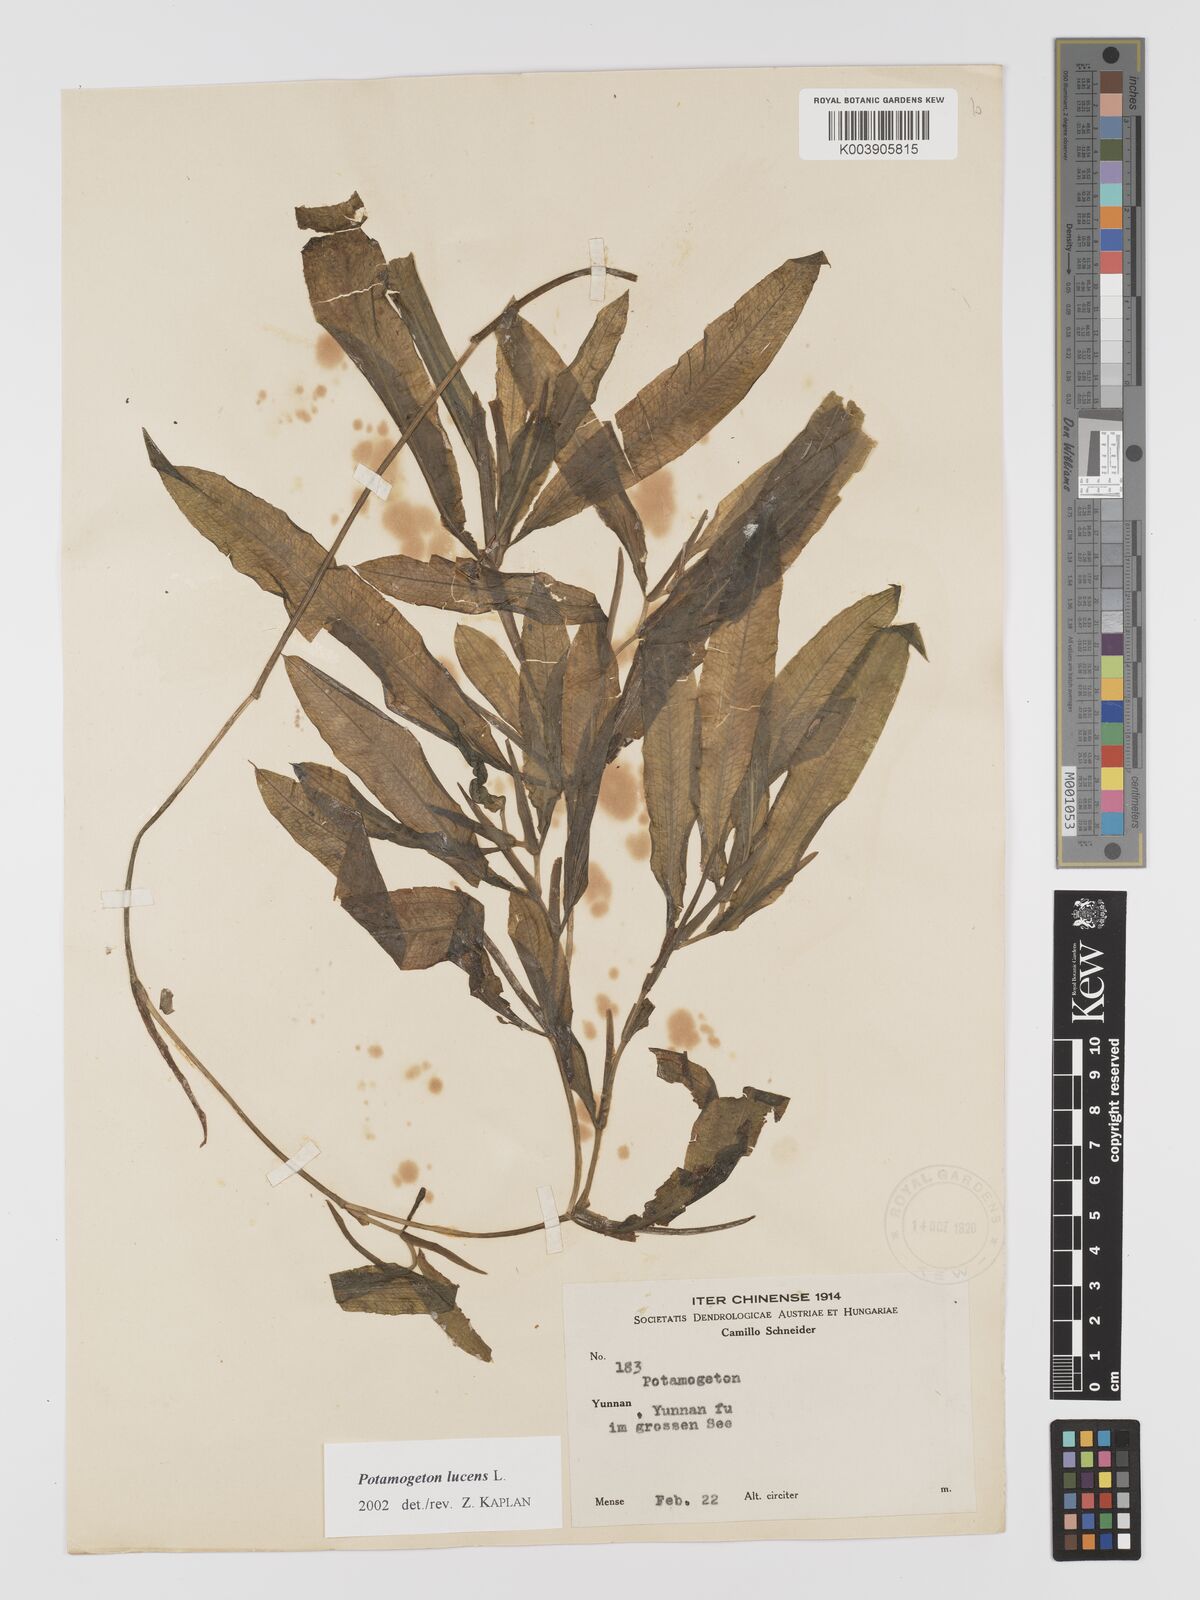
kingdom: Plantae
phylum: Tracheophyta
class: Liliopsida
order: Alismatales
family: Potamogetonaceae
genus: Potamogeton
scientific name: Potamogeton lucens
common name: Shining pondweed
